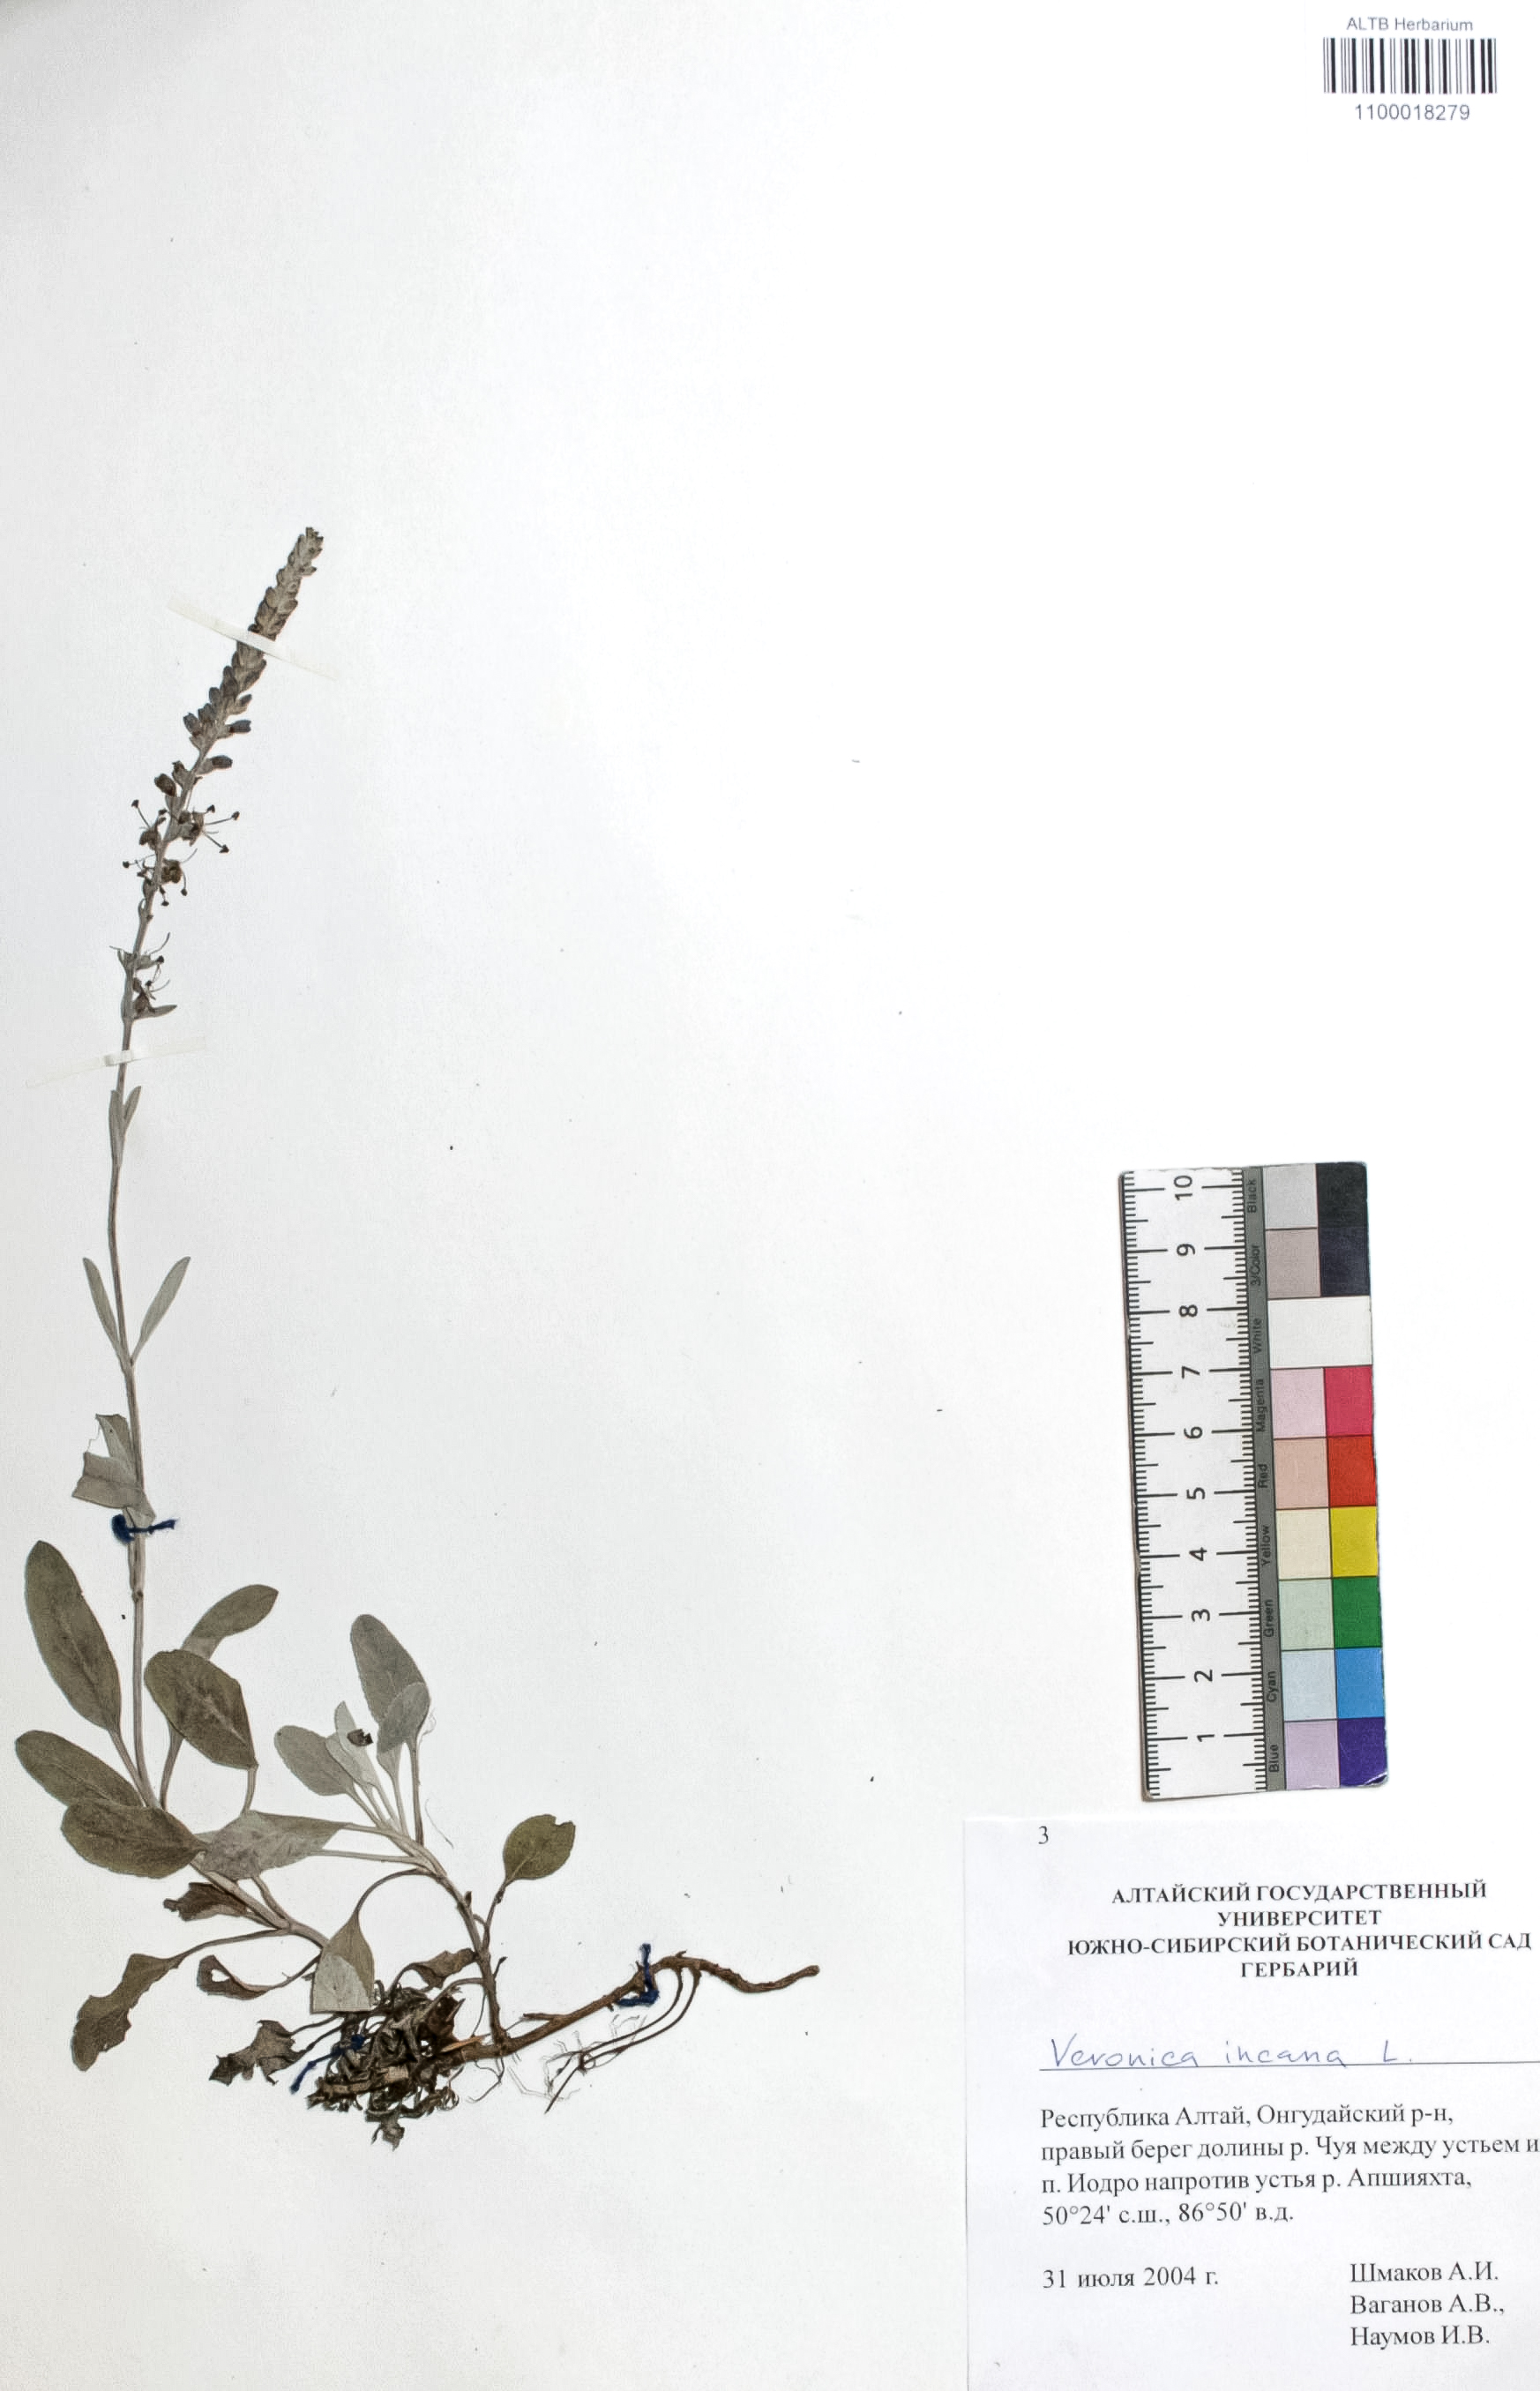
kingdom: Plantae
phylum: Tracheophyta
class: Magnoliopsida
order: Lamiales
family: Plantaginaceae
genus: Veronica
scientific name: Veronica incana
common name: Silver speedwell
